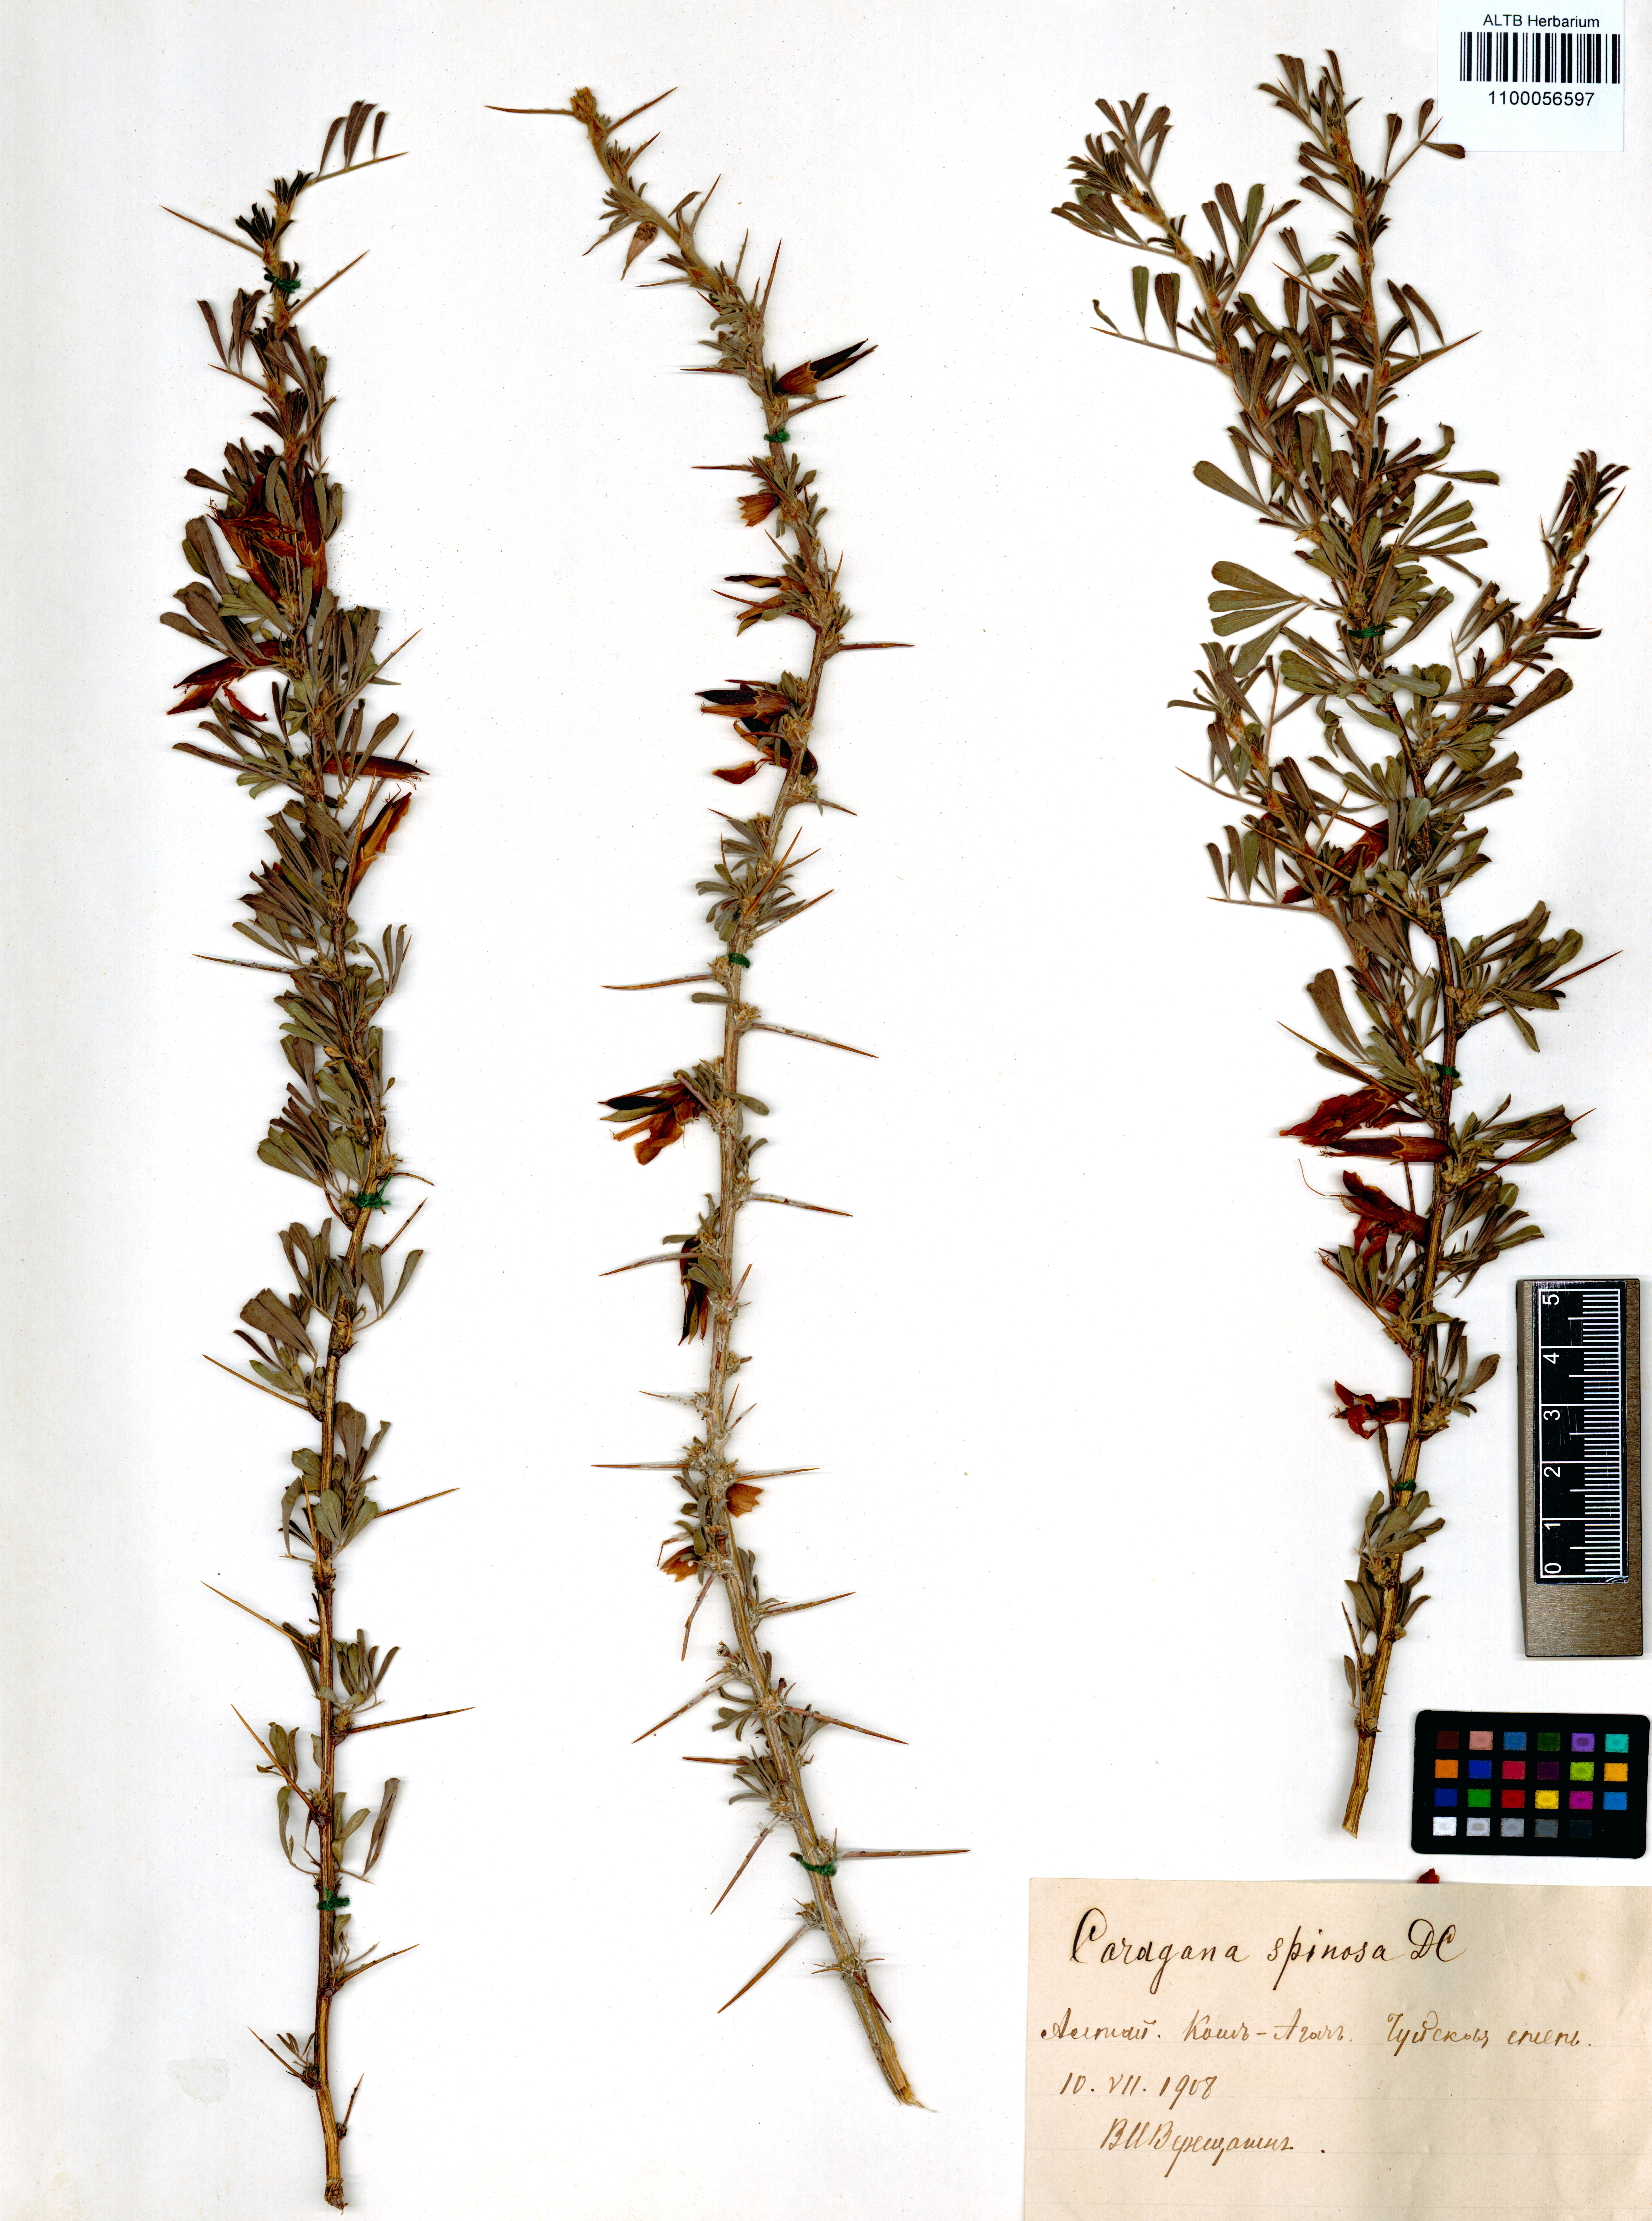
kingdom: Plantae
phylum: Tracheophyta
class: Magnoliopsida
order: Fabales
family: Fabaceae
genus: Caragana
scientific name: Caragana spinosa
